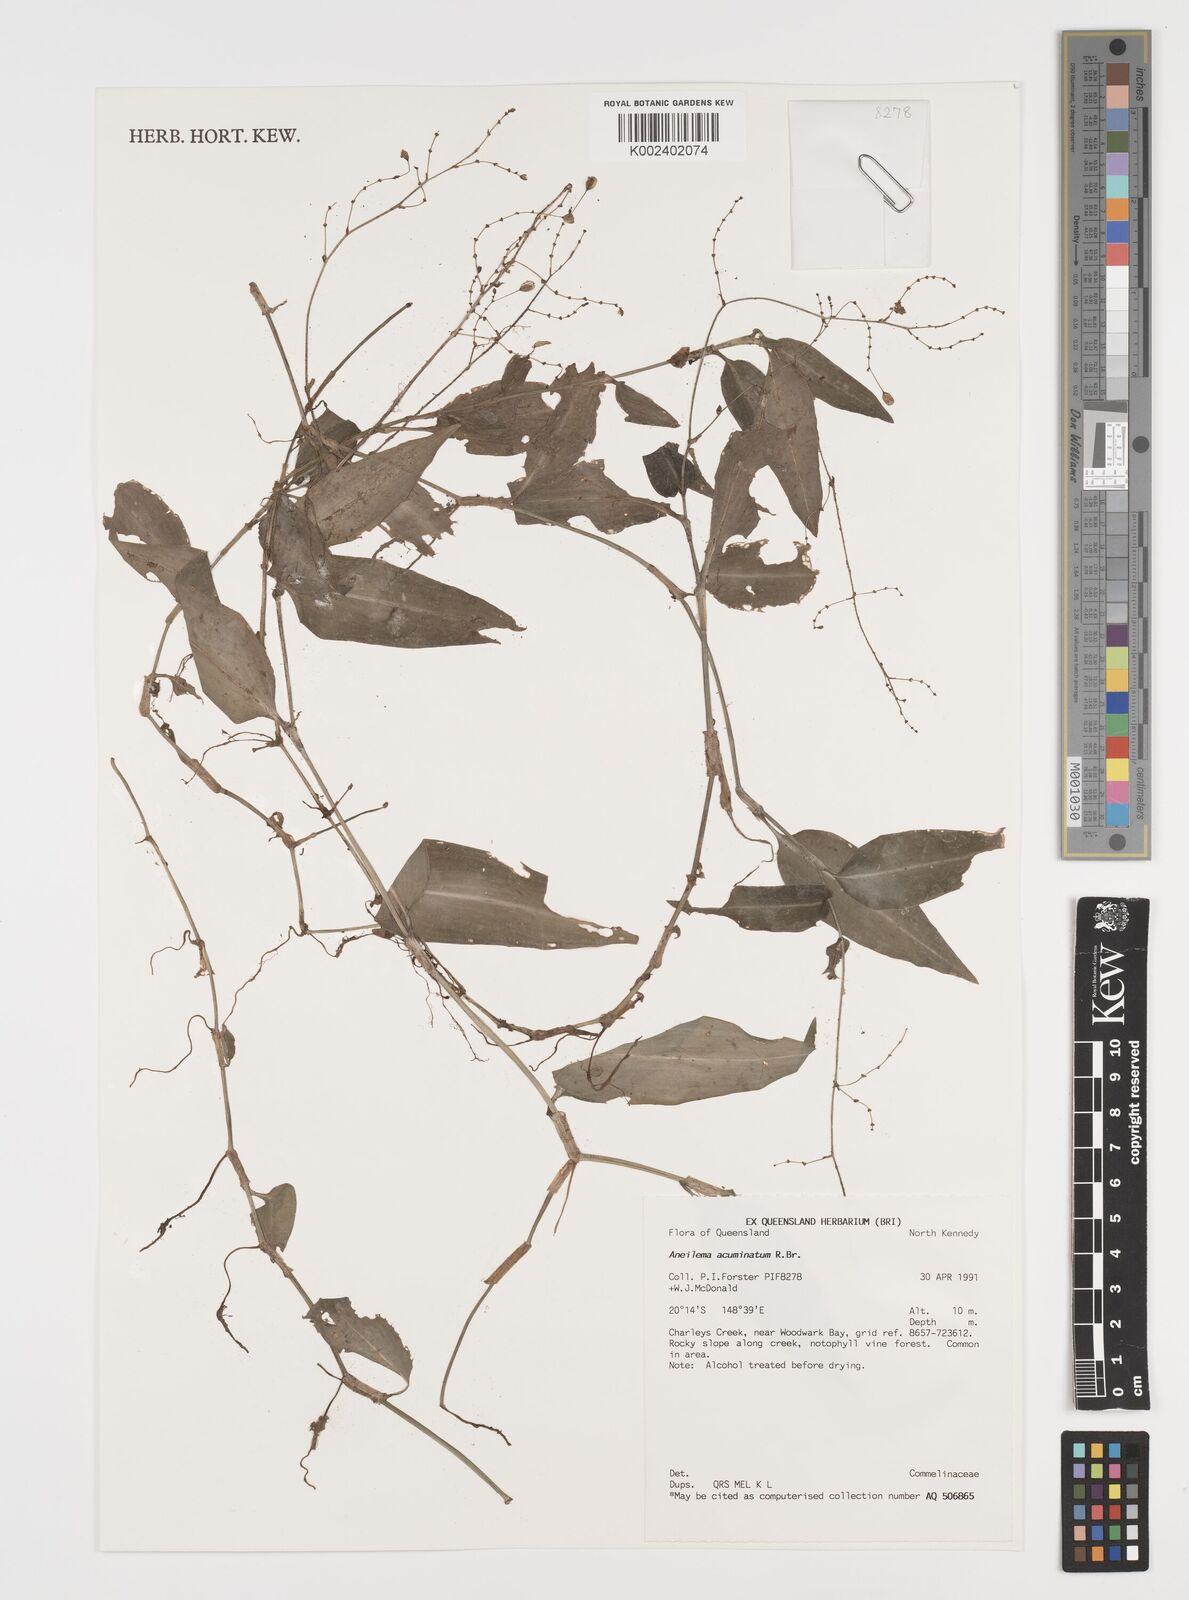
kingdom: Plantae
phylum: Tracheophyta
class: Liliopsida
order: Commelinales
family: Commelinaceae
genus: Aneilema
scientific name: Aneilema acuminatum
